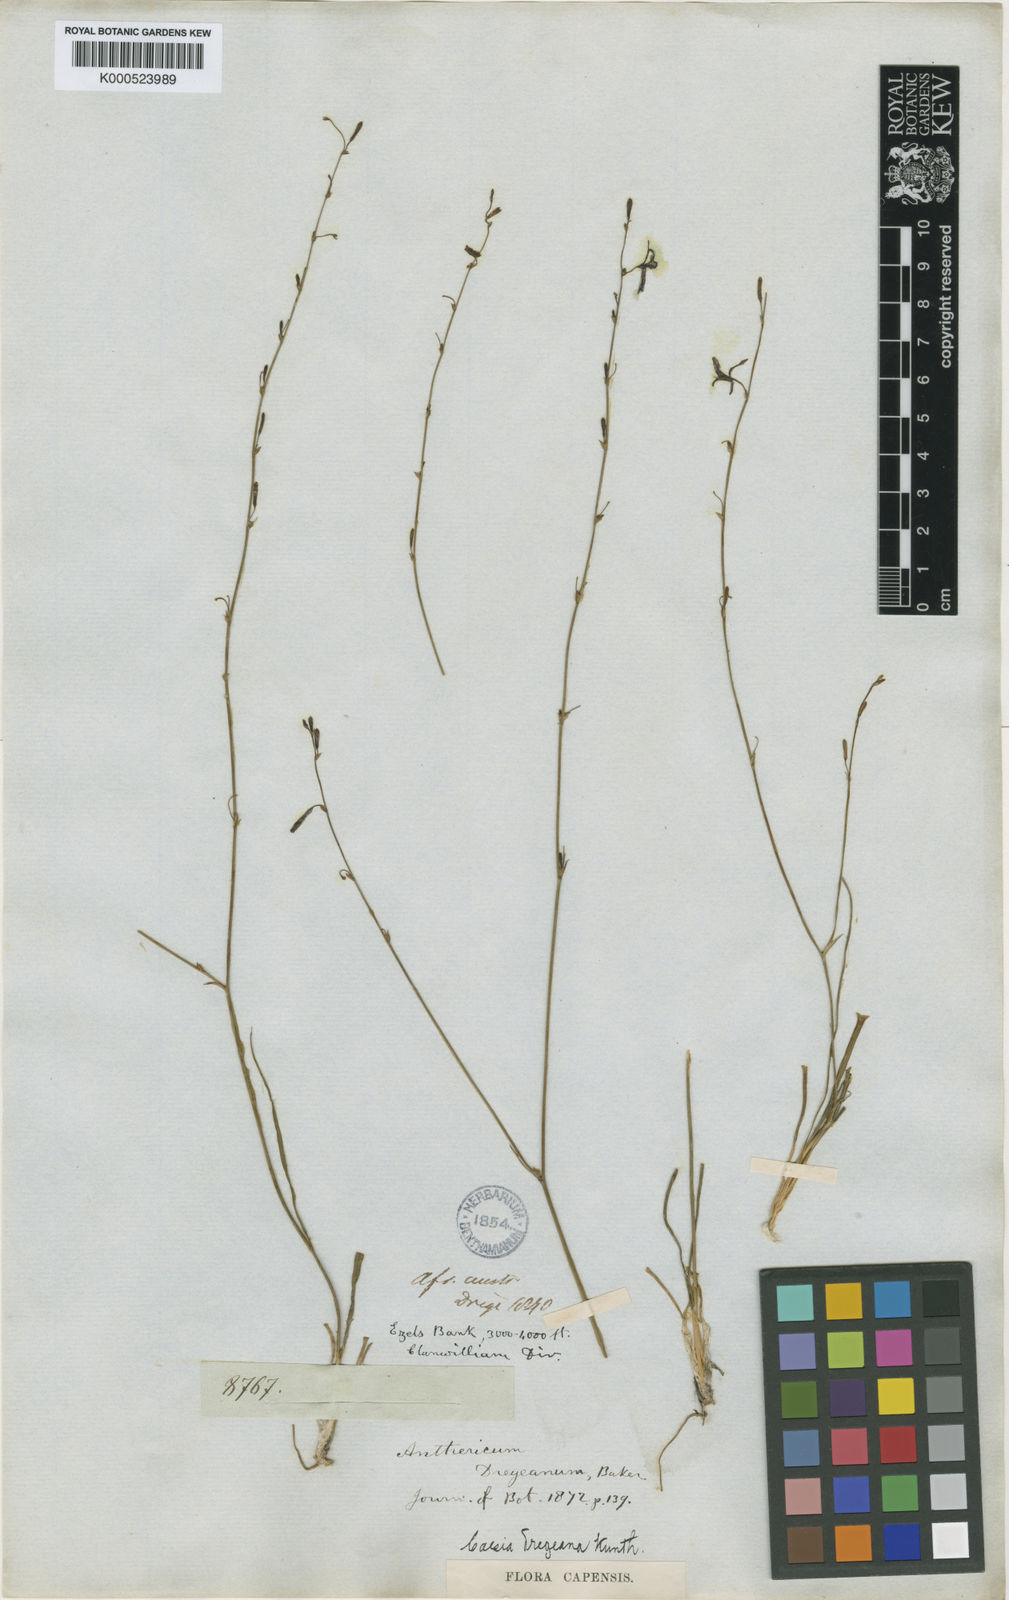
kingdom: Plantae
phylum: Tracheophyta
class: Liliopsida
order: Asparagales
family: Asphodelaceae
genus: Caesia
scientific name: Caesia contorta
